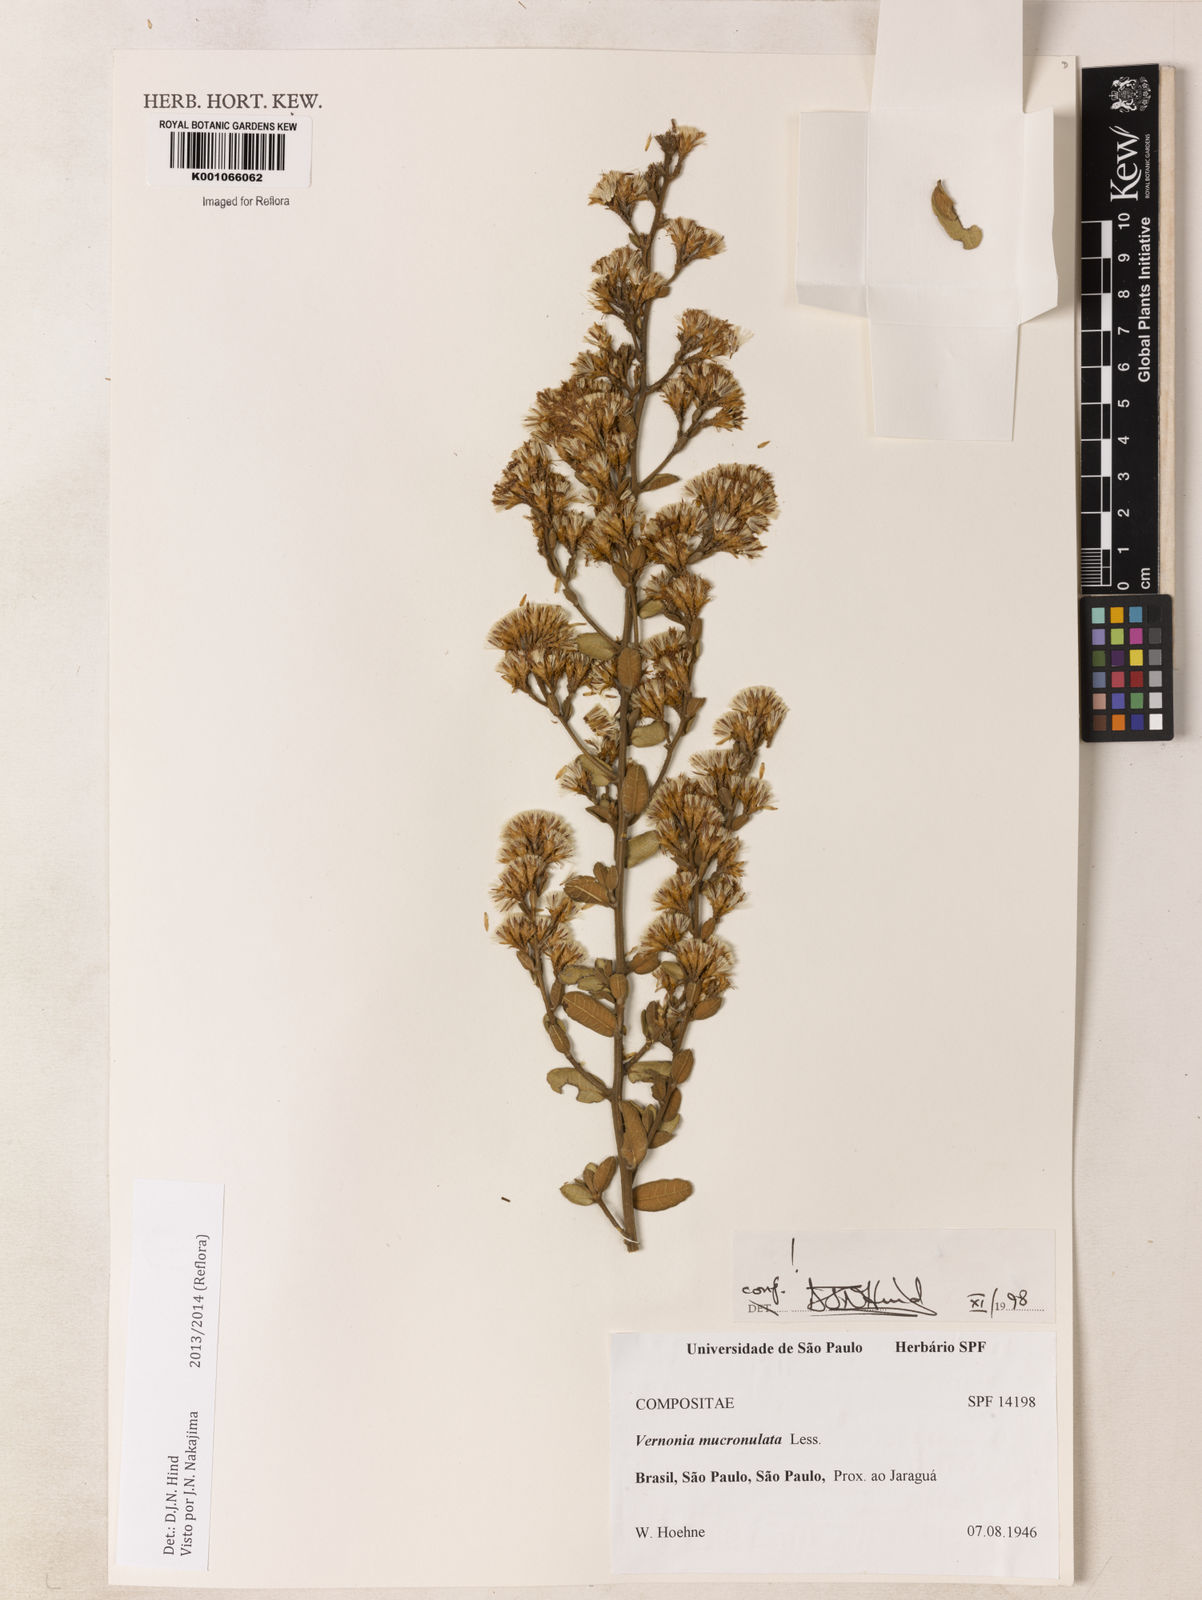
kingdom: Plantae
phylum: Tracheophyta
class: Magnoliopsida
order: Asterales
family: Asteraceae
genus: Vernonanthura
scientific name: Vernonanthura mucronulata
